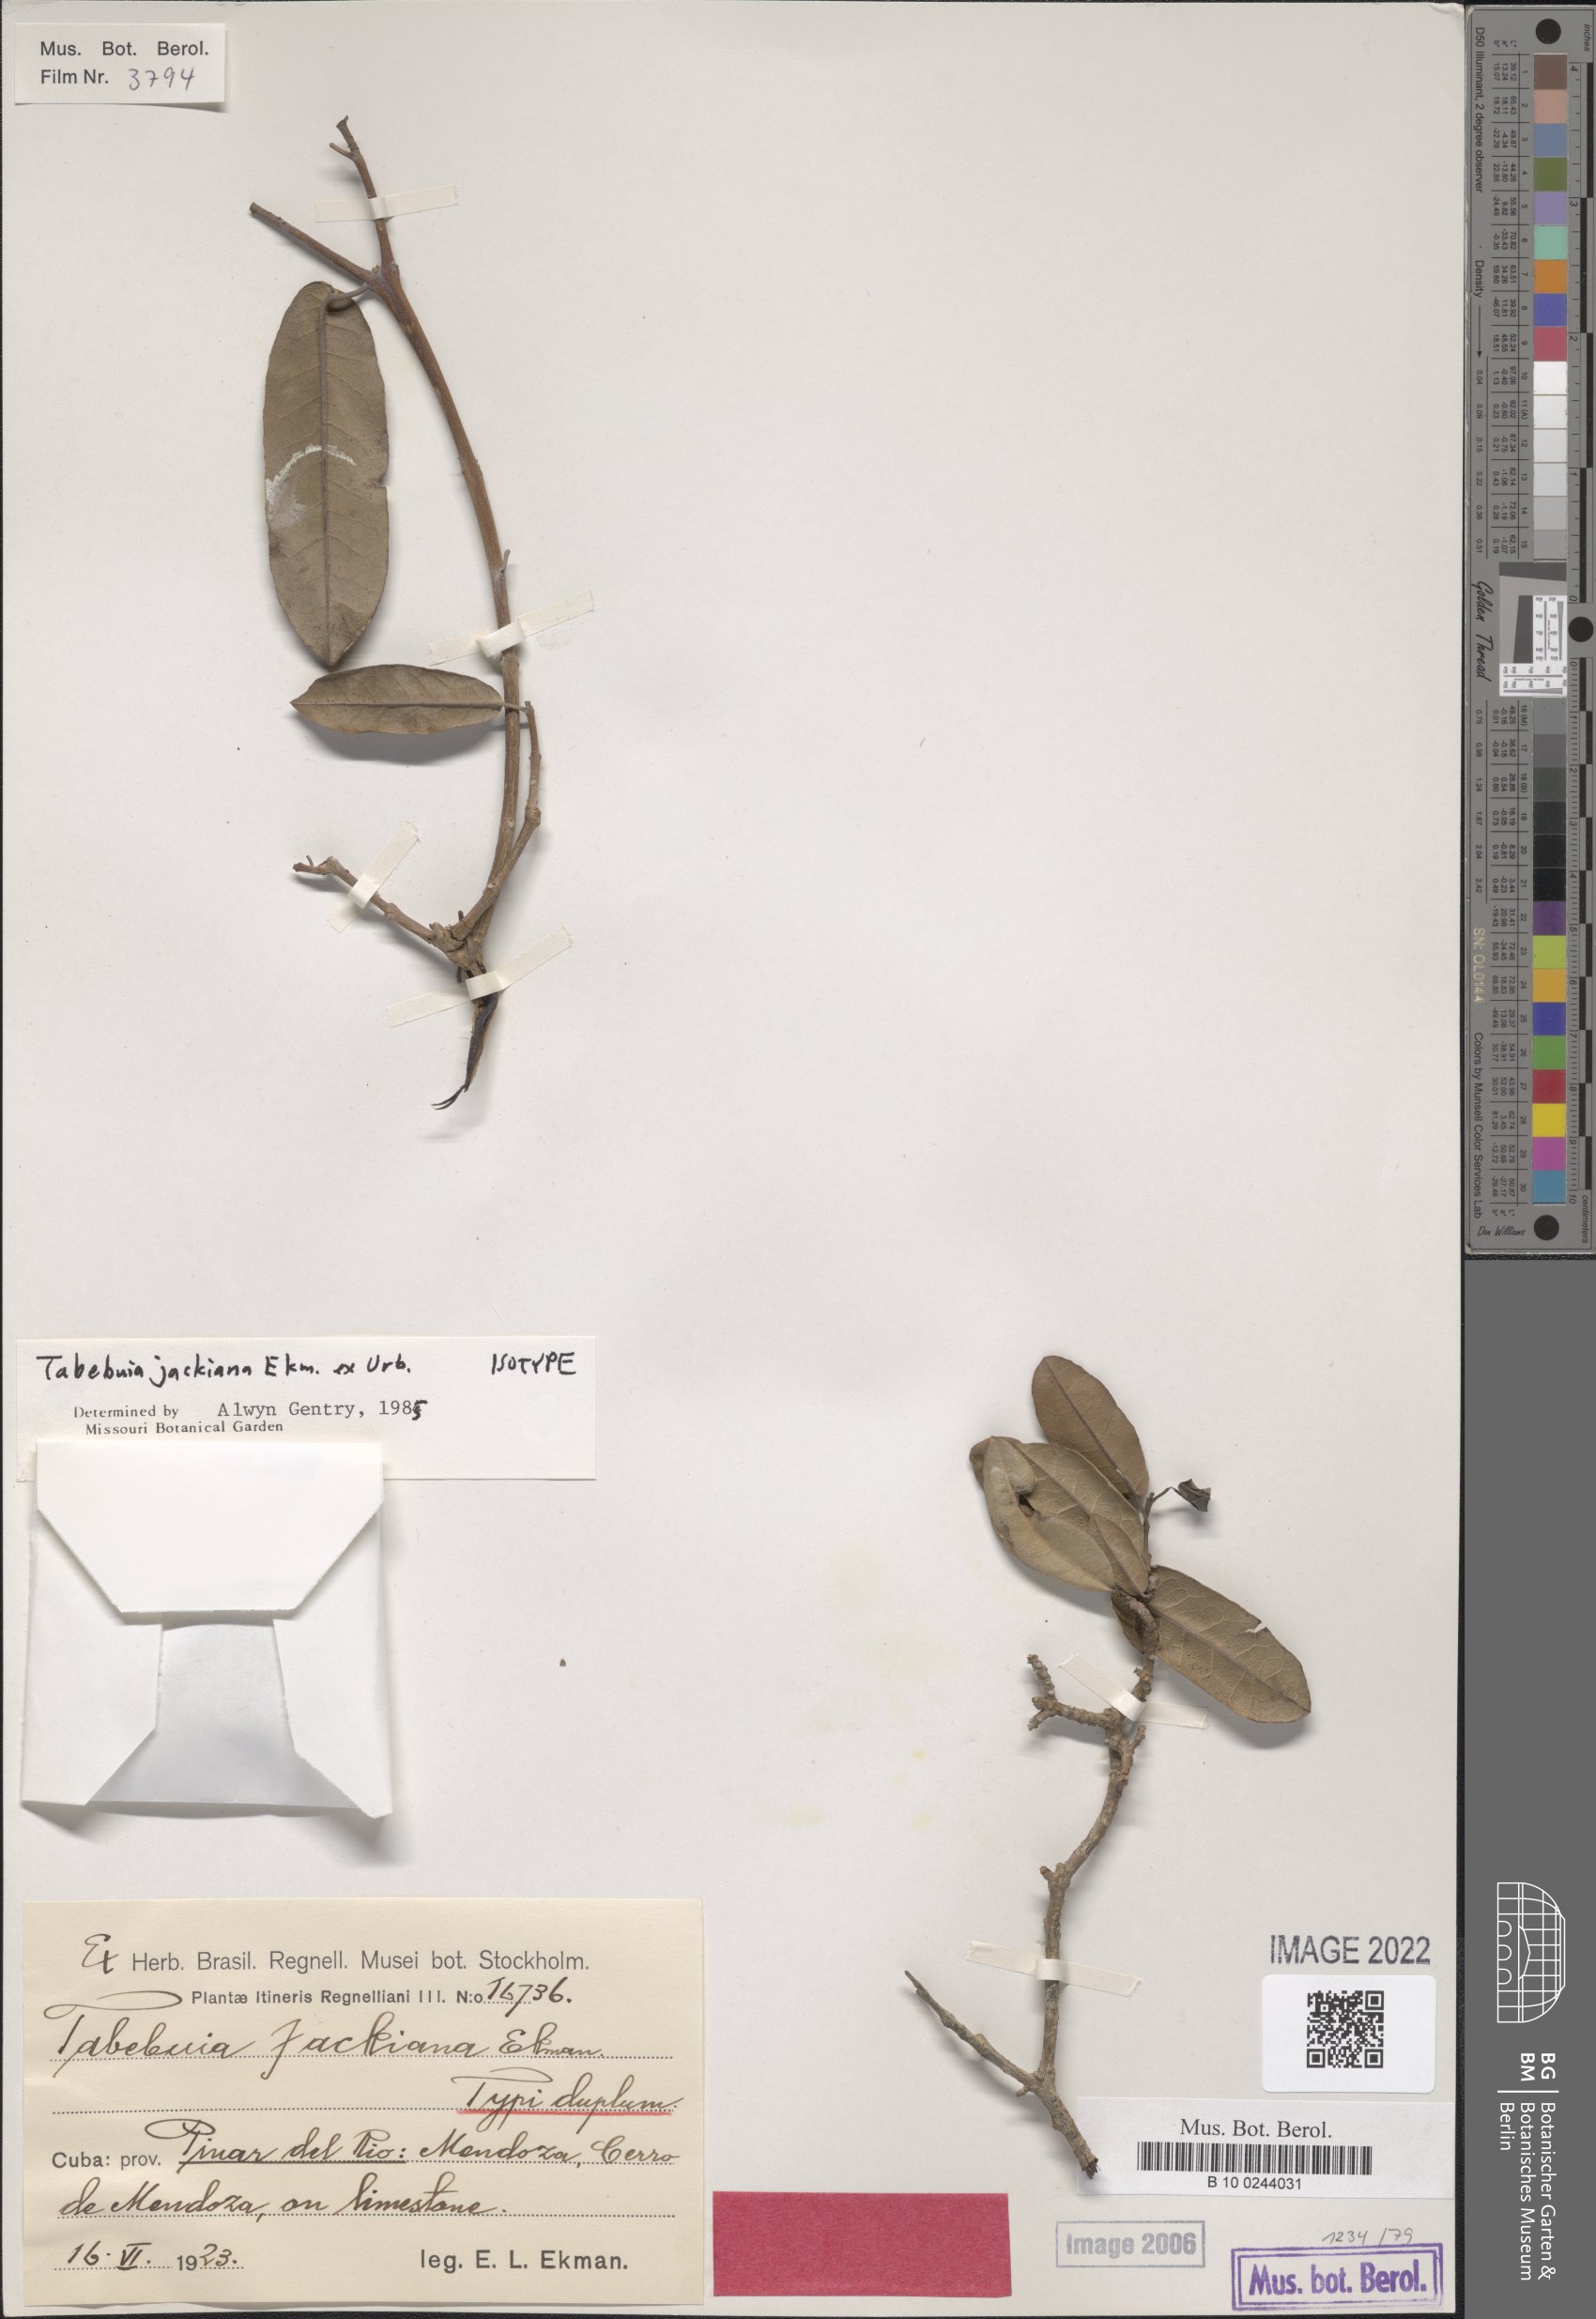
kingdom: Plantae
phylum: Tracheophyta
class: Magnoliopsida
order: Lamiales
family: Bignoniaceae
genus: Tabebuia
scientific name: Tabebuia jackiana
